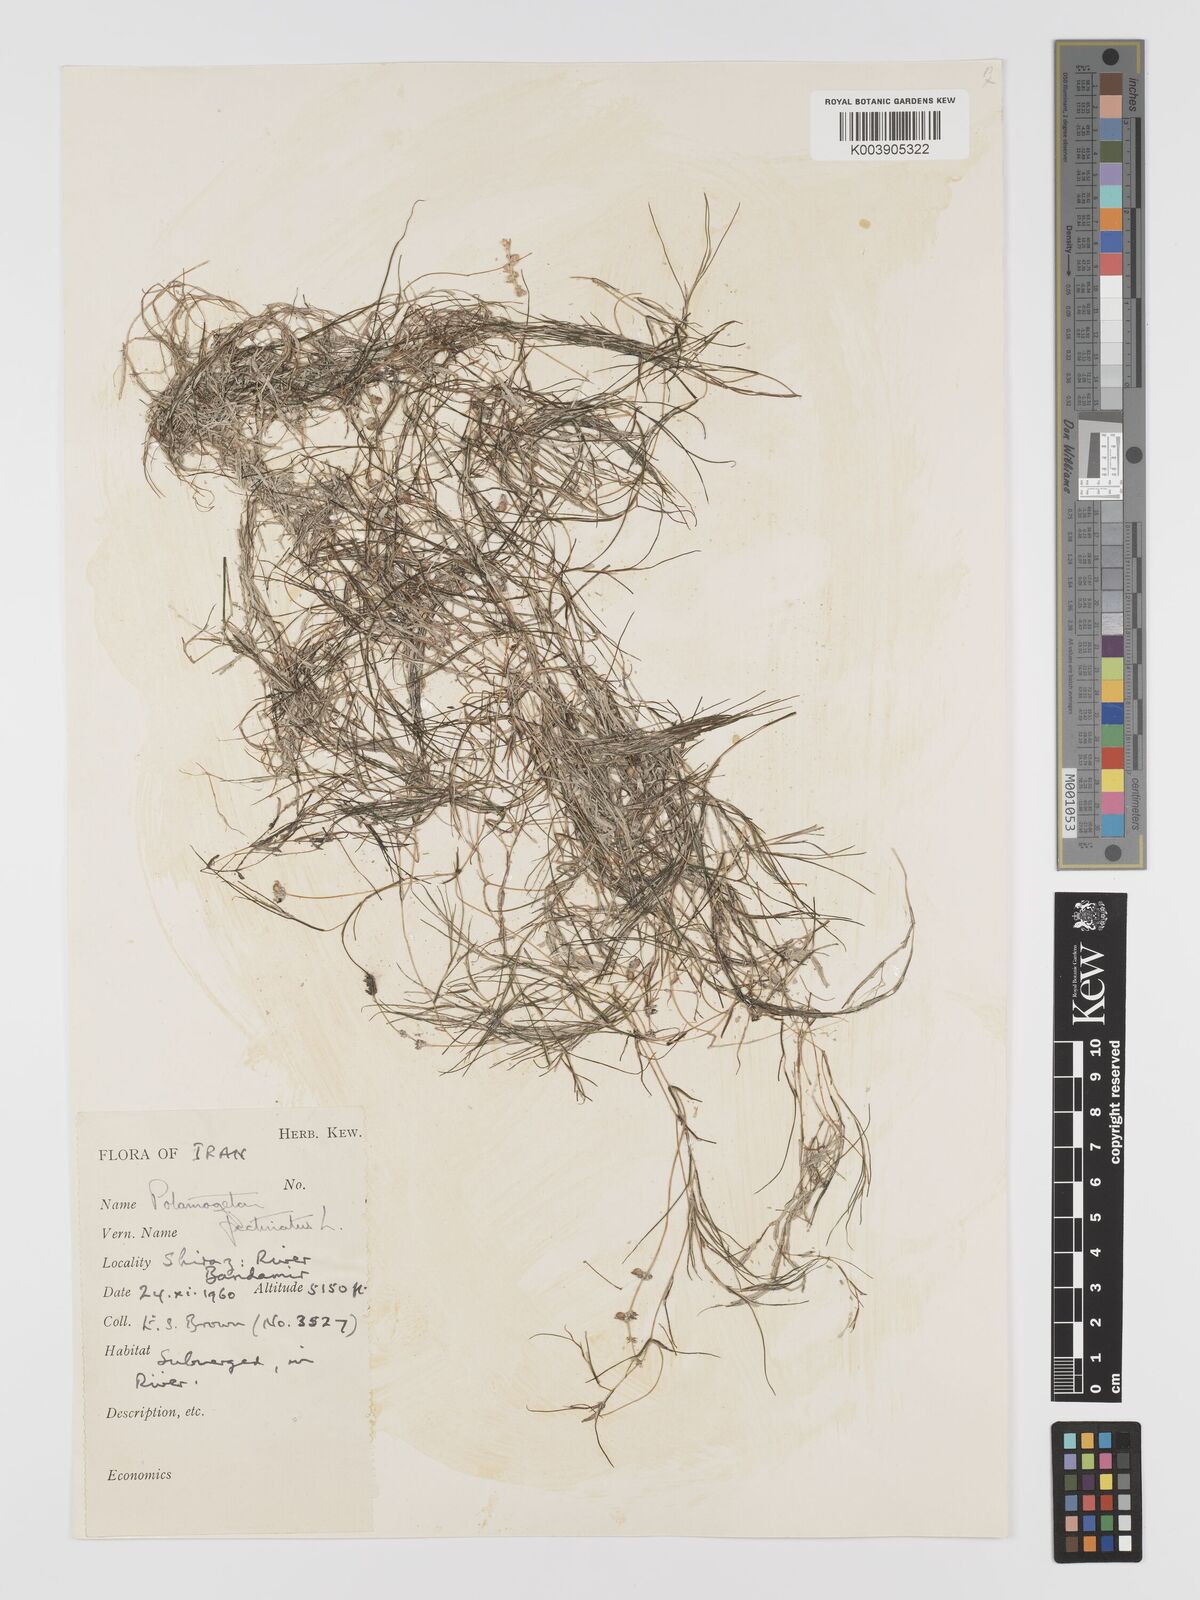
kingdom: Plantae
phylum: Tracheophyta
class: Liliopsida
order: Alismatales
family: Potamogetonaceae
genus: Stuckenia
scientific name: Stuckenia pectinata
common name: Sago pondweed
